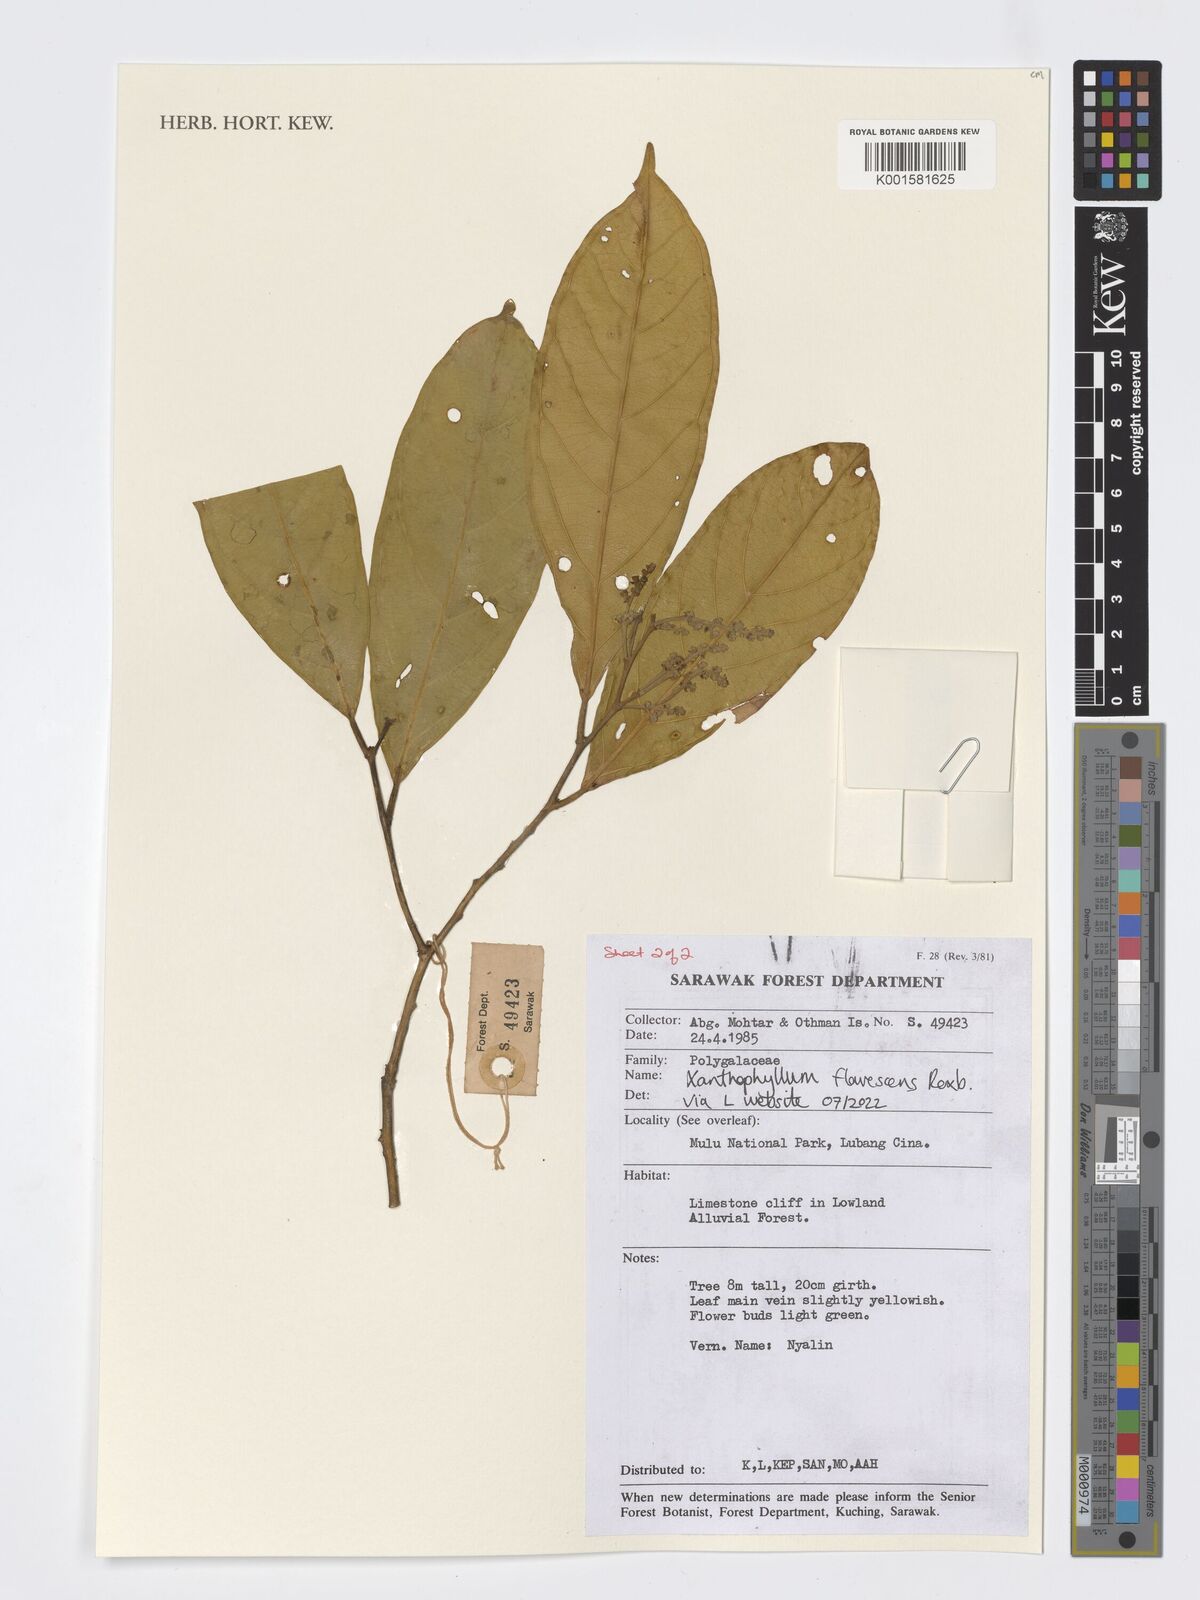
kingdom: Plantae
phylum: Tracheophyta
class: Magnoliopsida
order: Fabales
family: Polygalaceae
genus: Xanthophyllum
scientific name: Xanthophyllum flavescens
